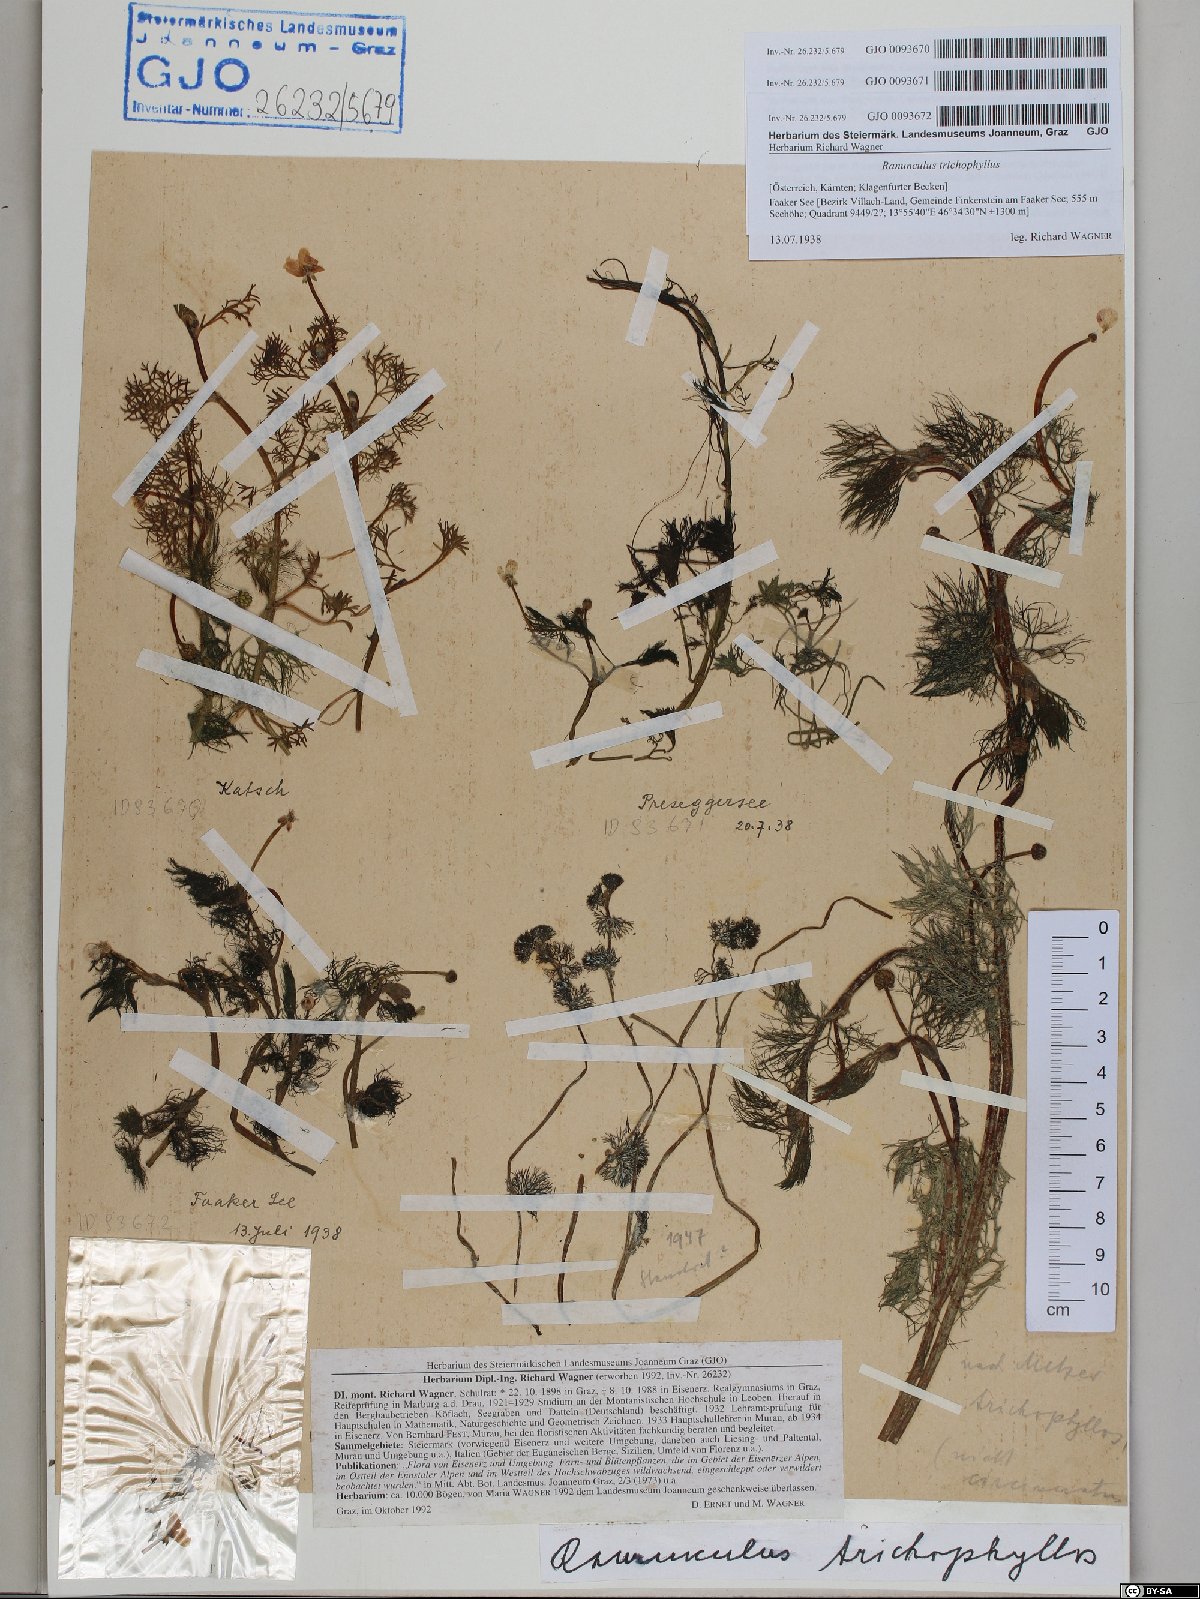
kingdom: Plantae
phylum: Tracheophyta
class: Magnoliopsida
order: Ranunculales
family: Ranunculaceae
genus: Ranunculus
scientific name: Ranunculus trichophyllus
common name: Thread-leaved water-crowfoot
